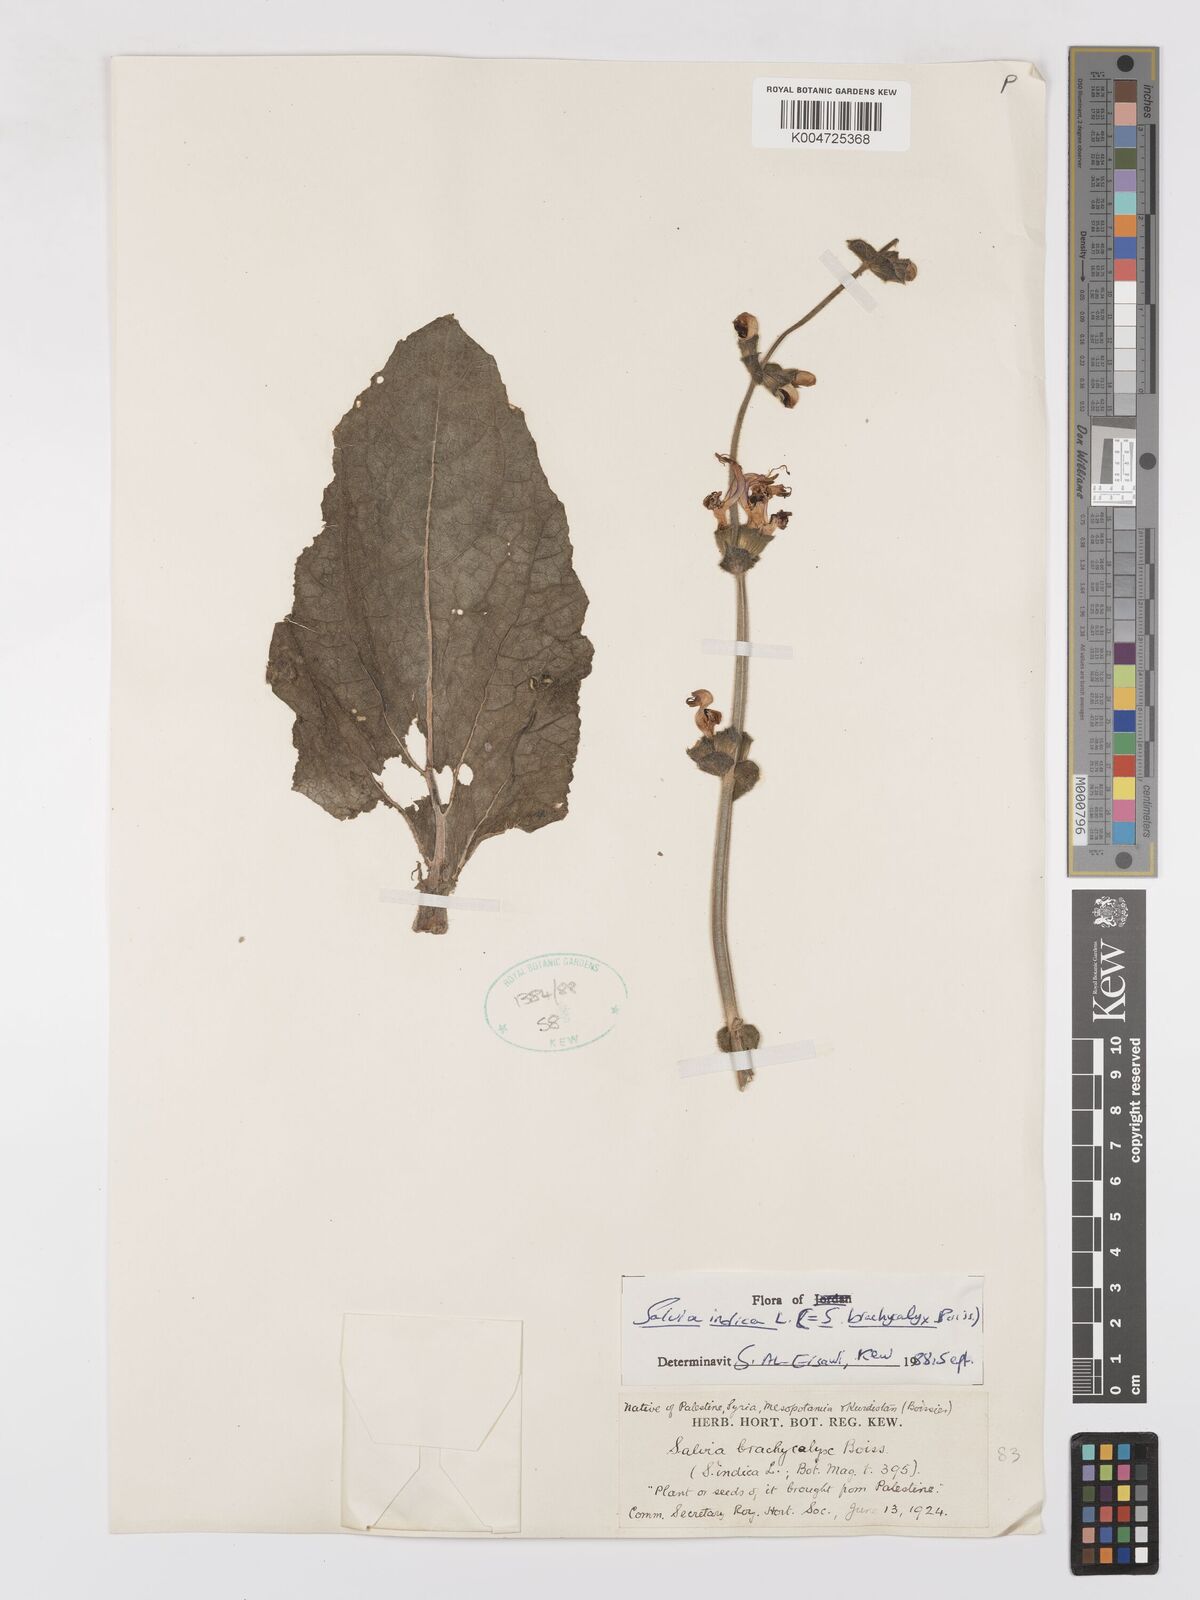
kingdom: Plantae
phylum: Tracheophyta
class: Magnoliopsida
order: Lamiales
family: Lamiaceae
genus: Salvia
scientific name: Salvia indica
